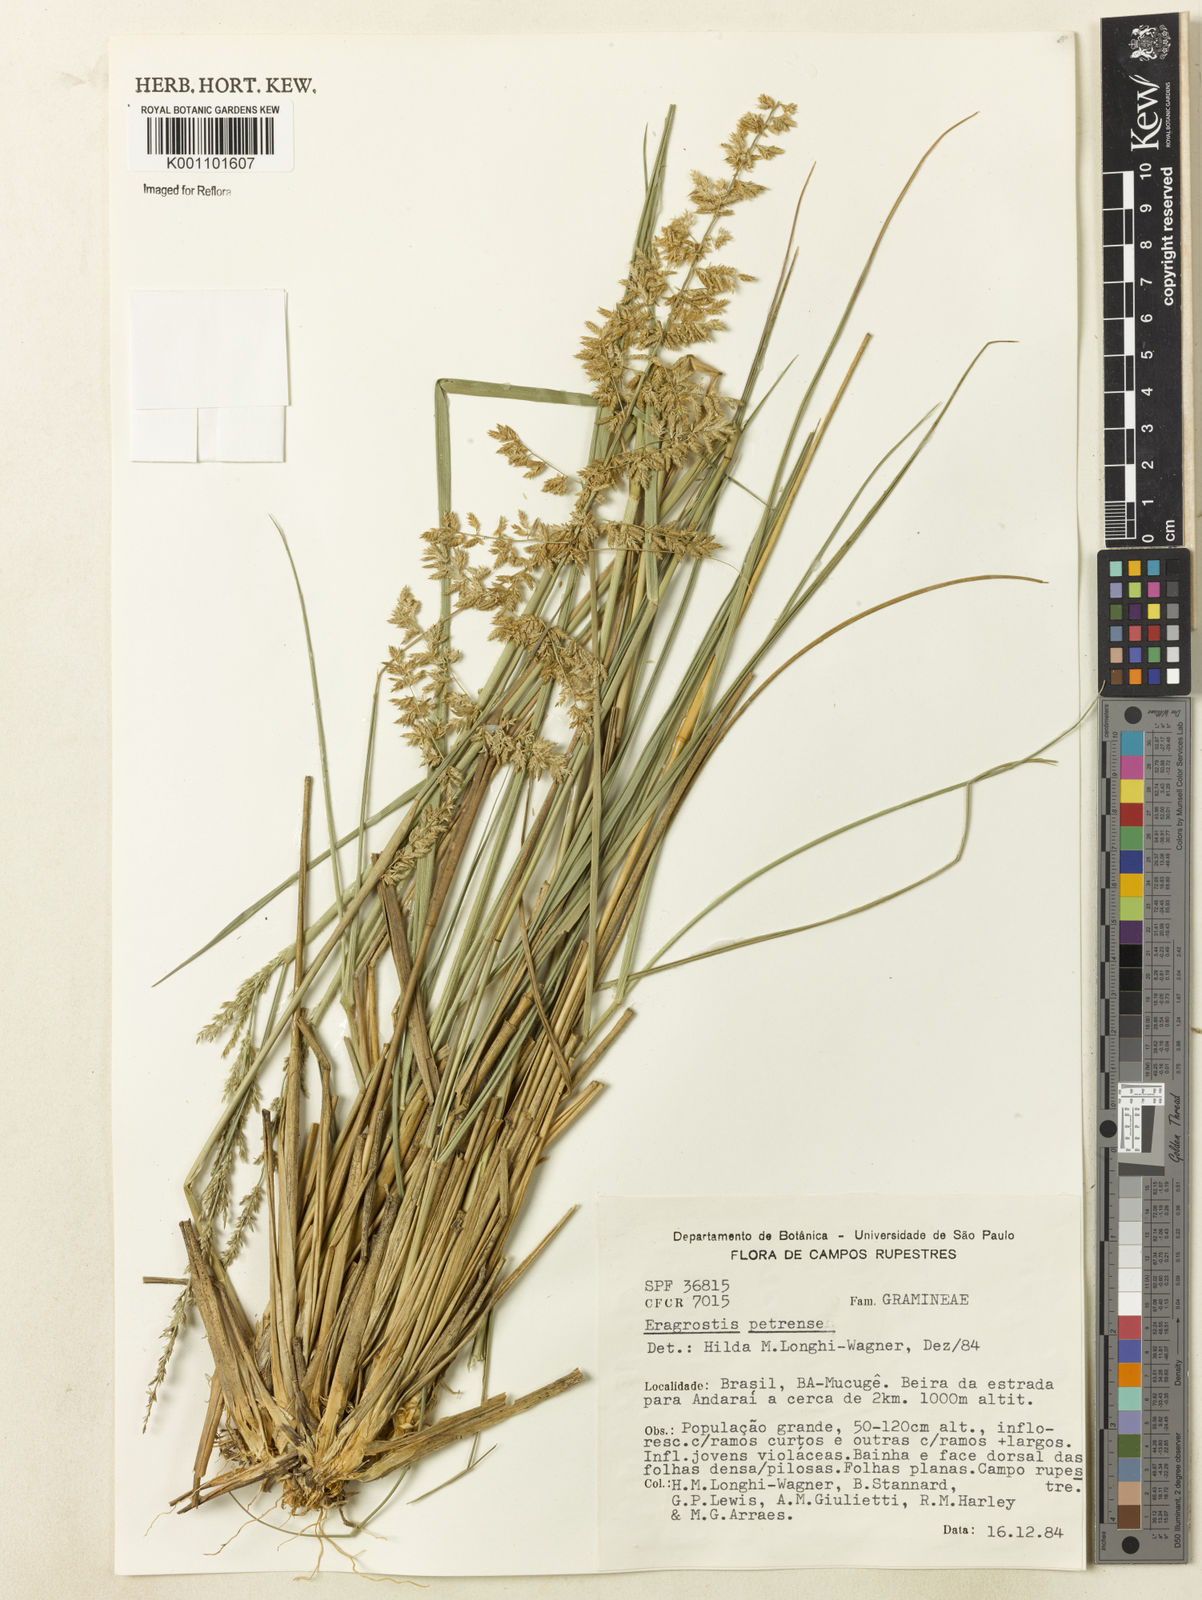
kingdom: Plantae
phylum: Tracheophyta
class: Liliopsida
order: Poales
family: Poaceae
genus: Eragrostis
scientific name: Eragrostis petrensis
